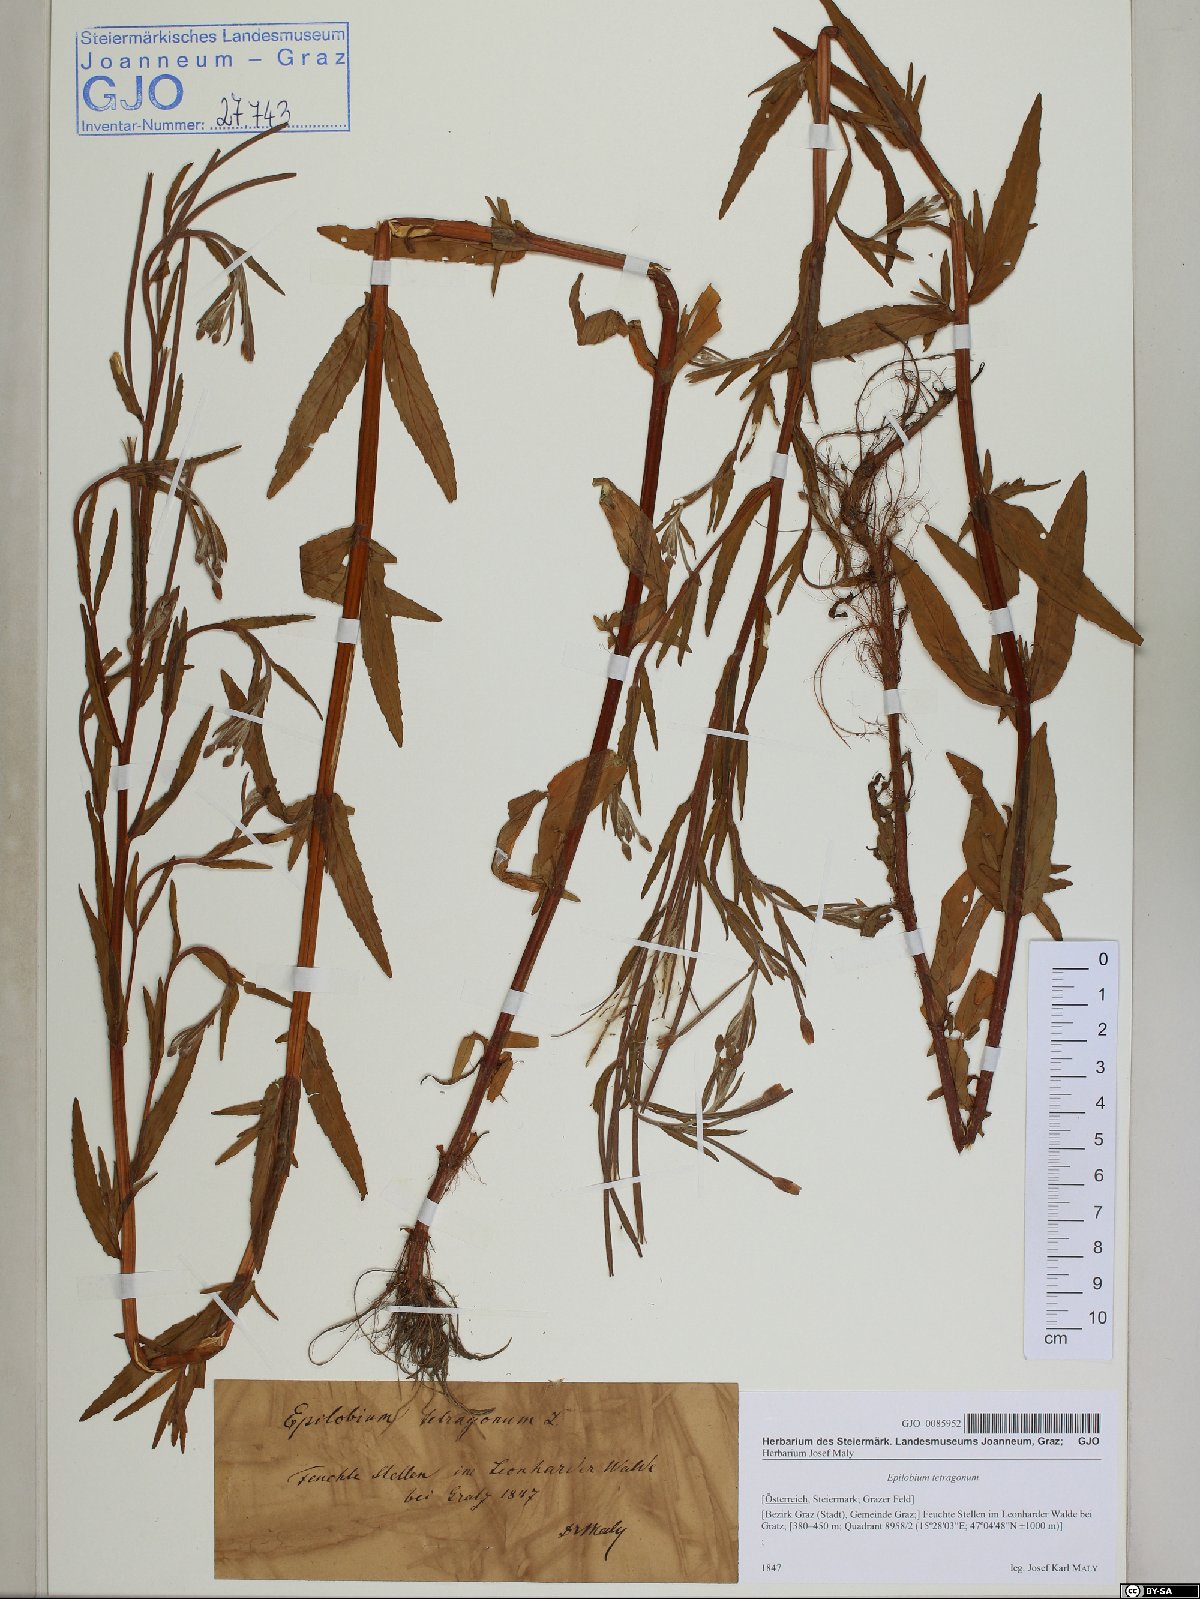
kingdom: Plantae
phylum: Tracheophyta
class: Magnoliopsida
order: Myrtales
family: Onagraceae
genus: Epilobium
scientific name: Epilobium lamyi
